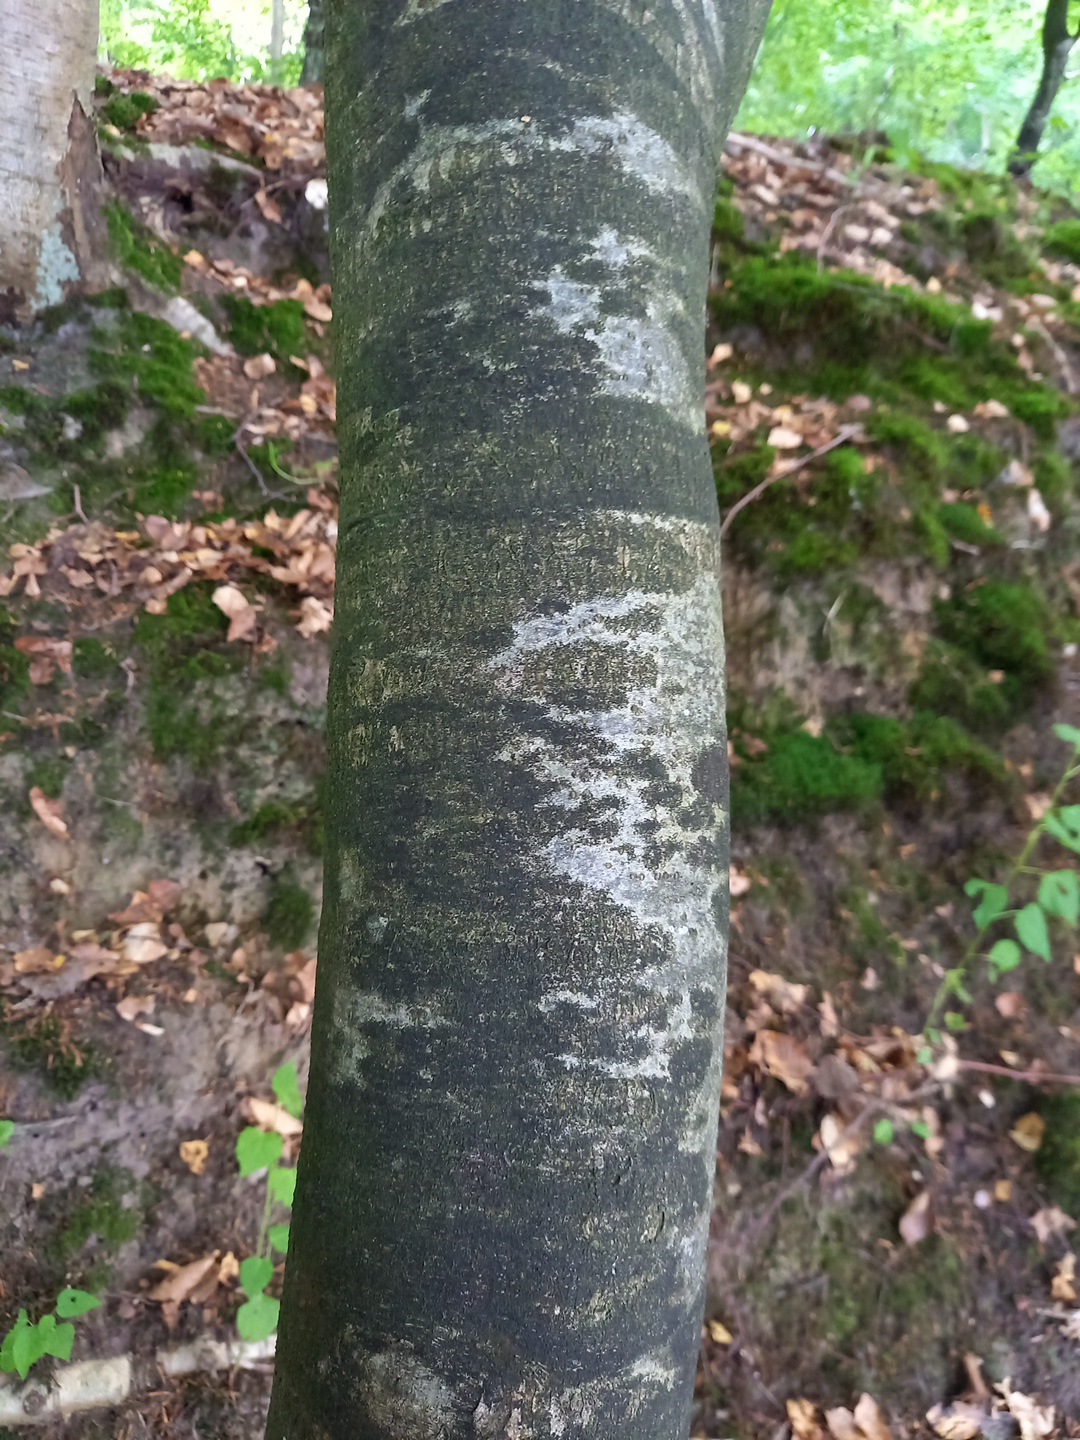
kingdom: Fungi
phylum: Ascomycota
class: Leotiomycetes
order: Rhytismatales
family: Ascodichaenaceae
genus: Ascodichaena
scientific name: Ascodichaena rugosa
